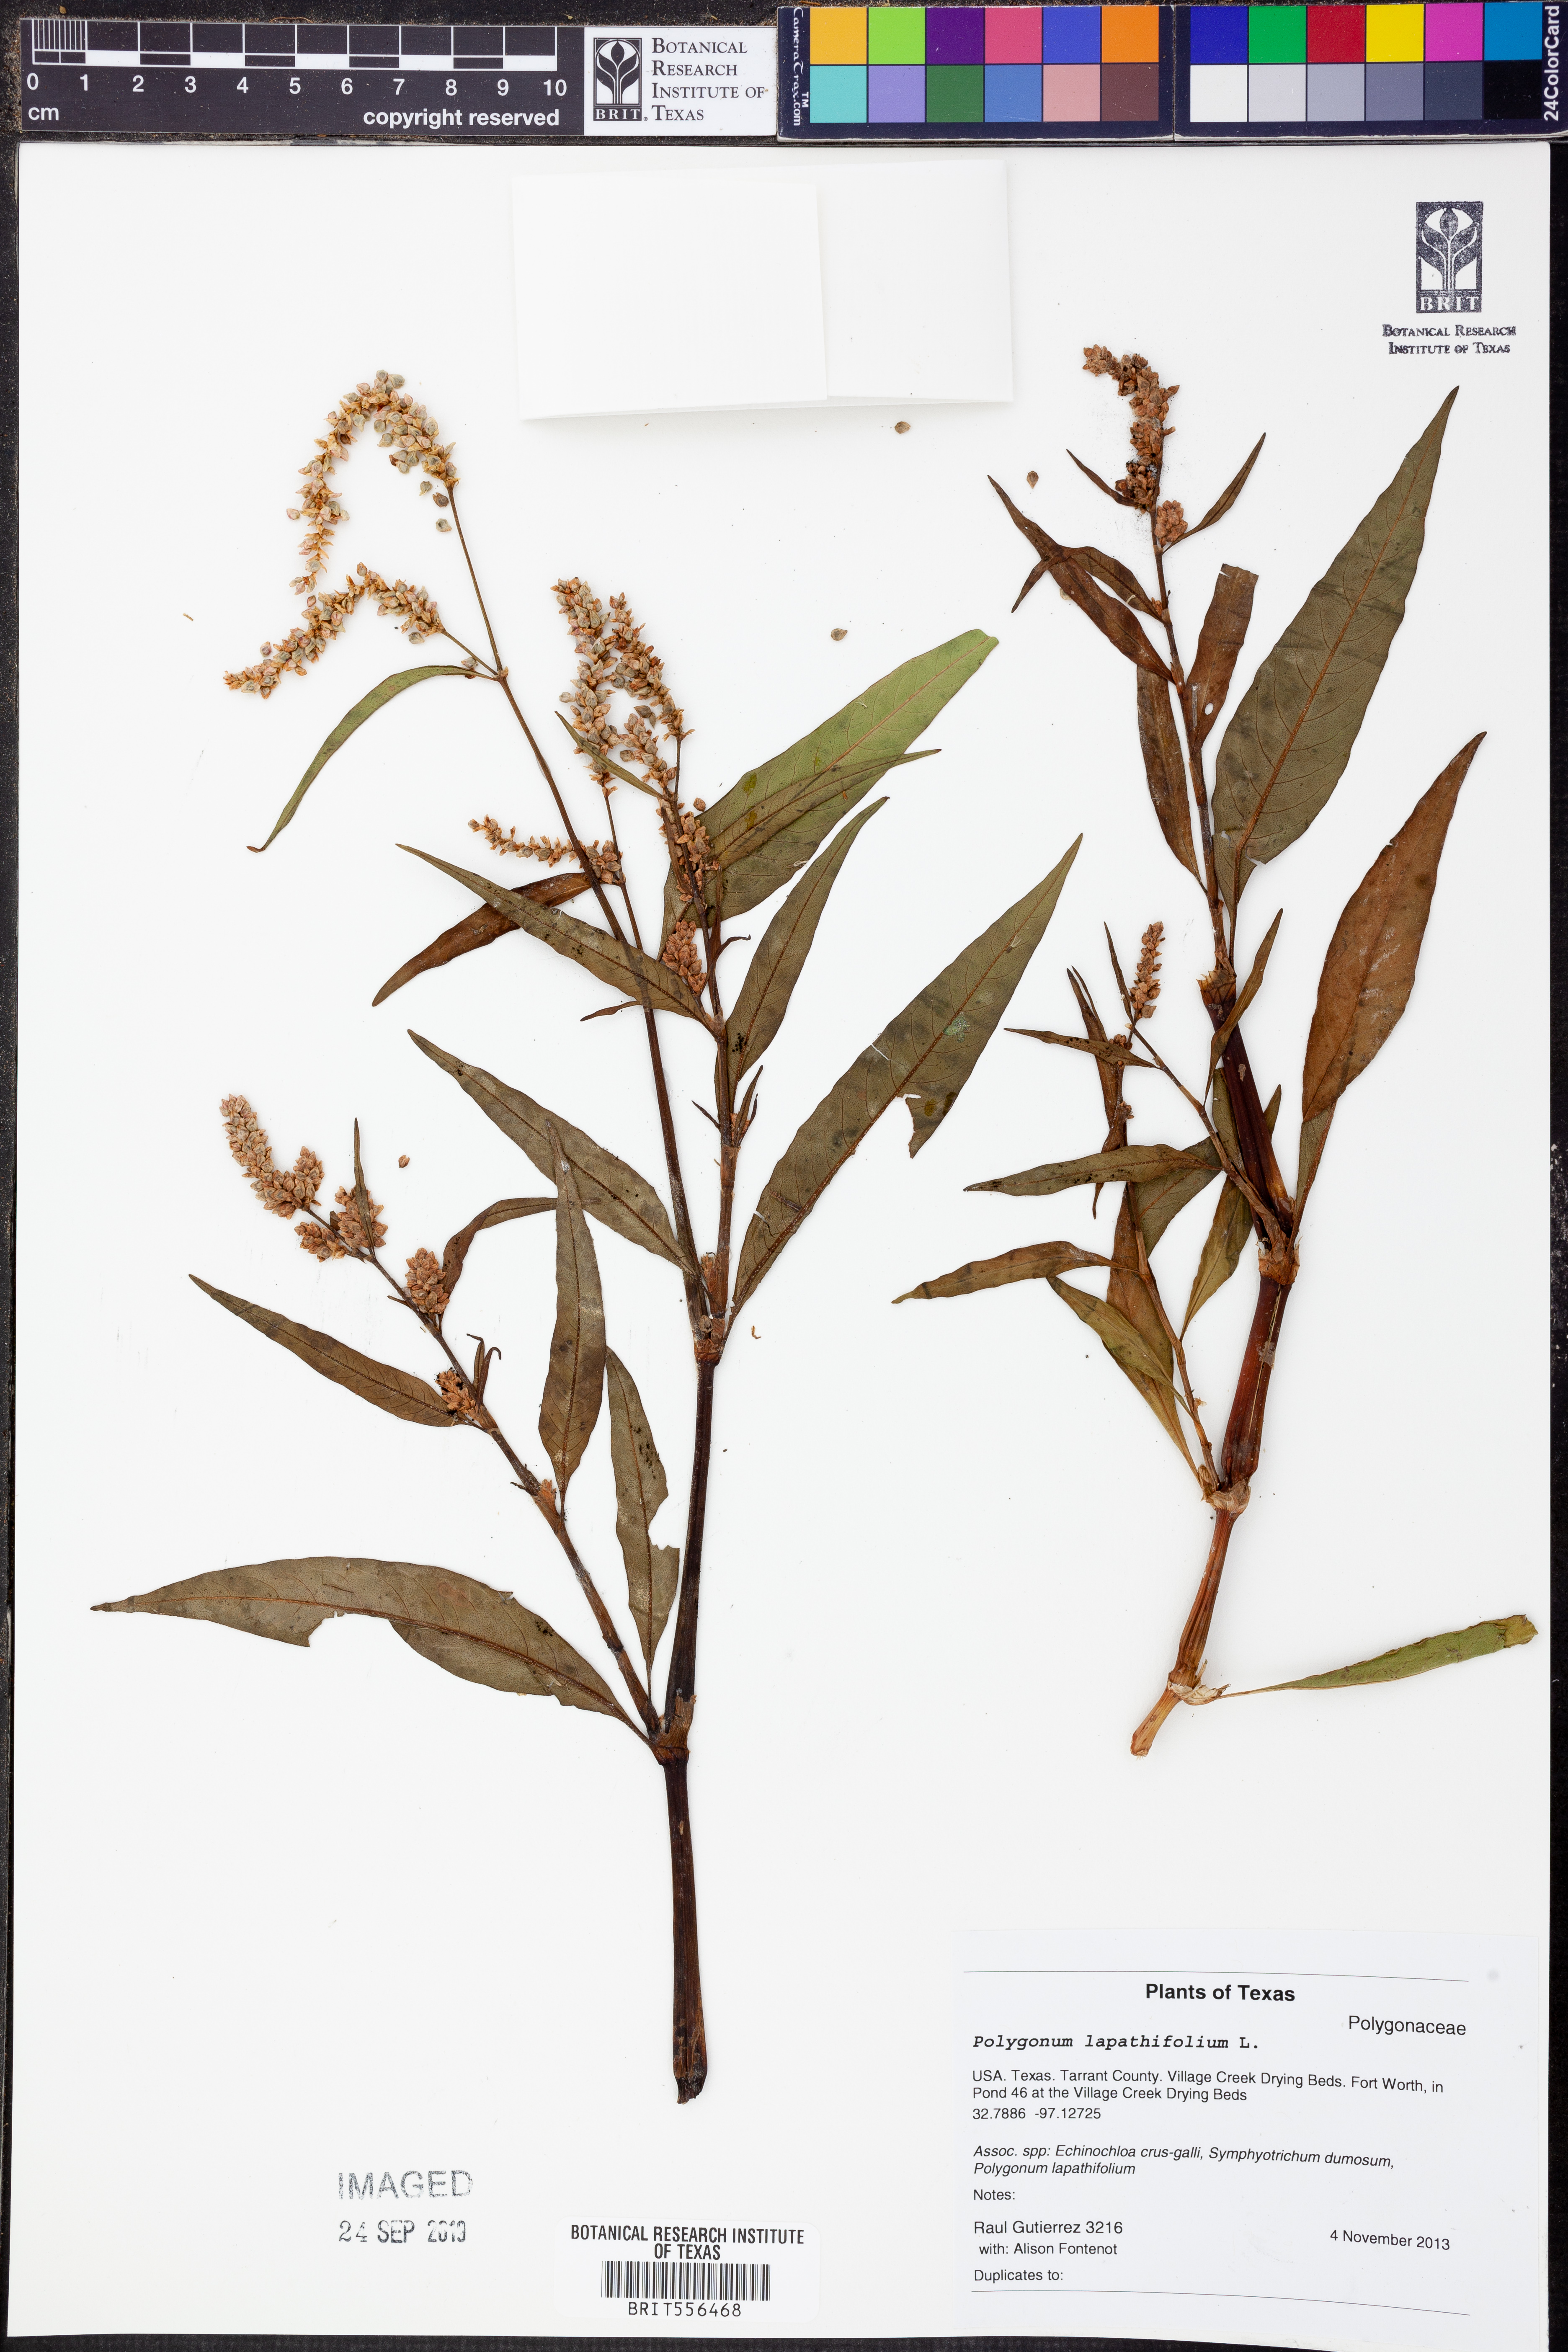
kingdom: Plantae
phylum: Tracheophyta
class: Magnoliopsida
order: Caryophyllales
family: Polygonaceae
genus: Persicaria
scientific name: Persicaria lapathifolia
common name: Curlytop knotweed
